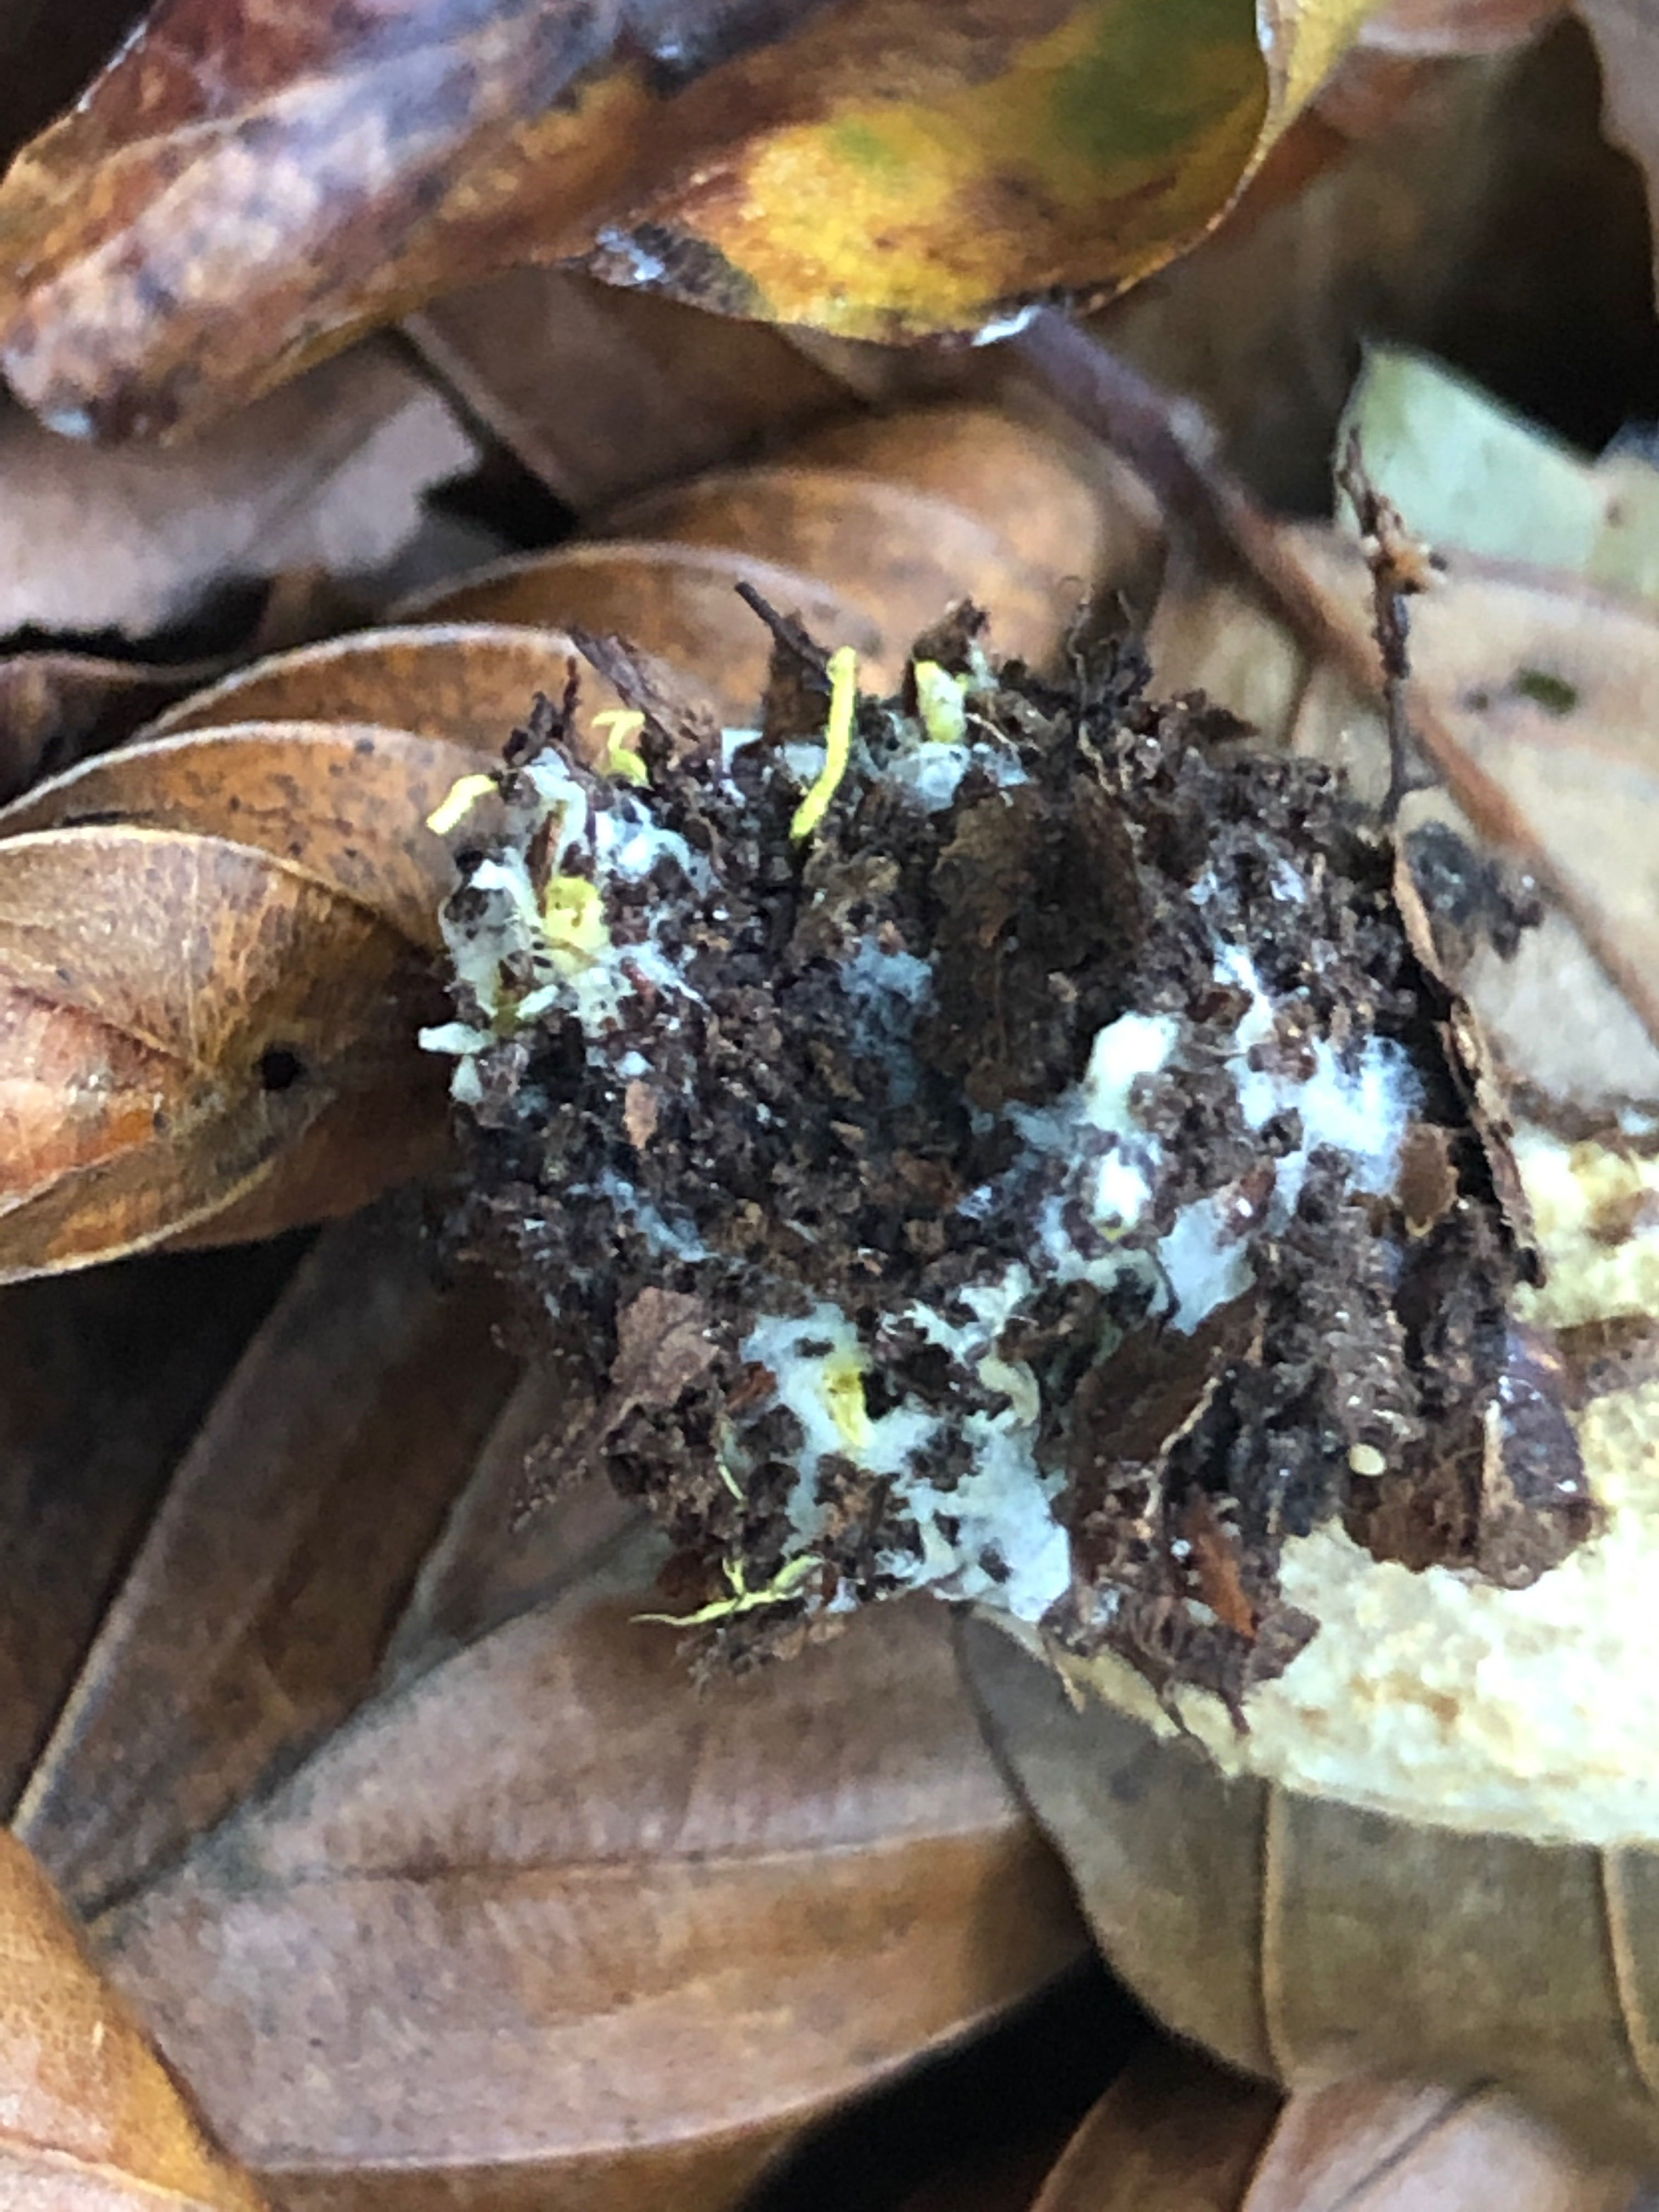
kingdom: Fungi
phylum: Basidiomycota
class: Agaricomycetes
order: Boletales
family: Boletaceae
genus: Xerocomus
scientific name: Xerocomus ferrugineus
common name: vaskeskinds-rørhat
